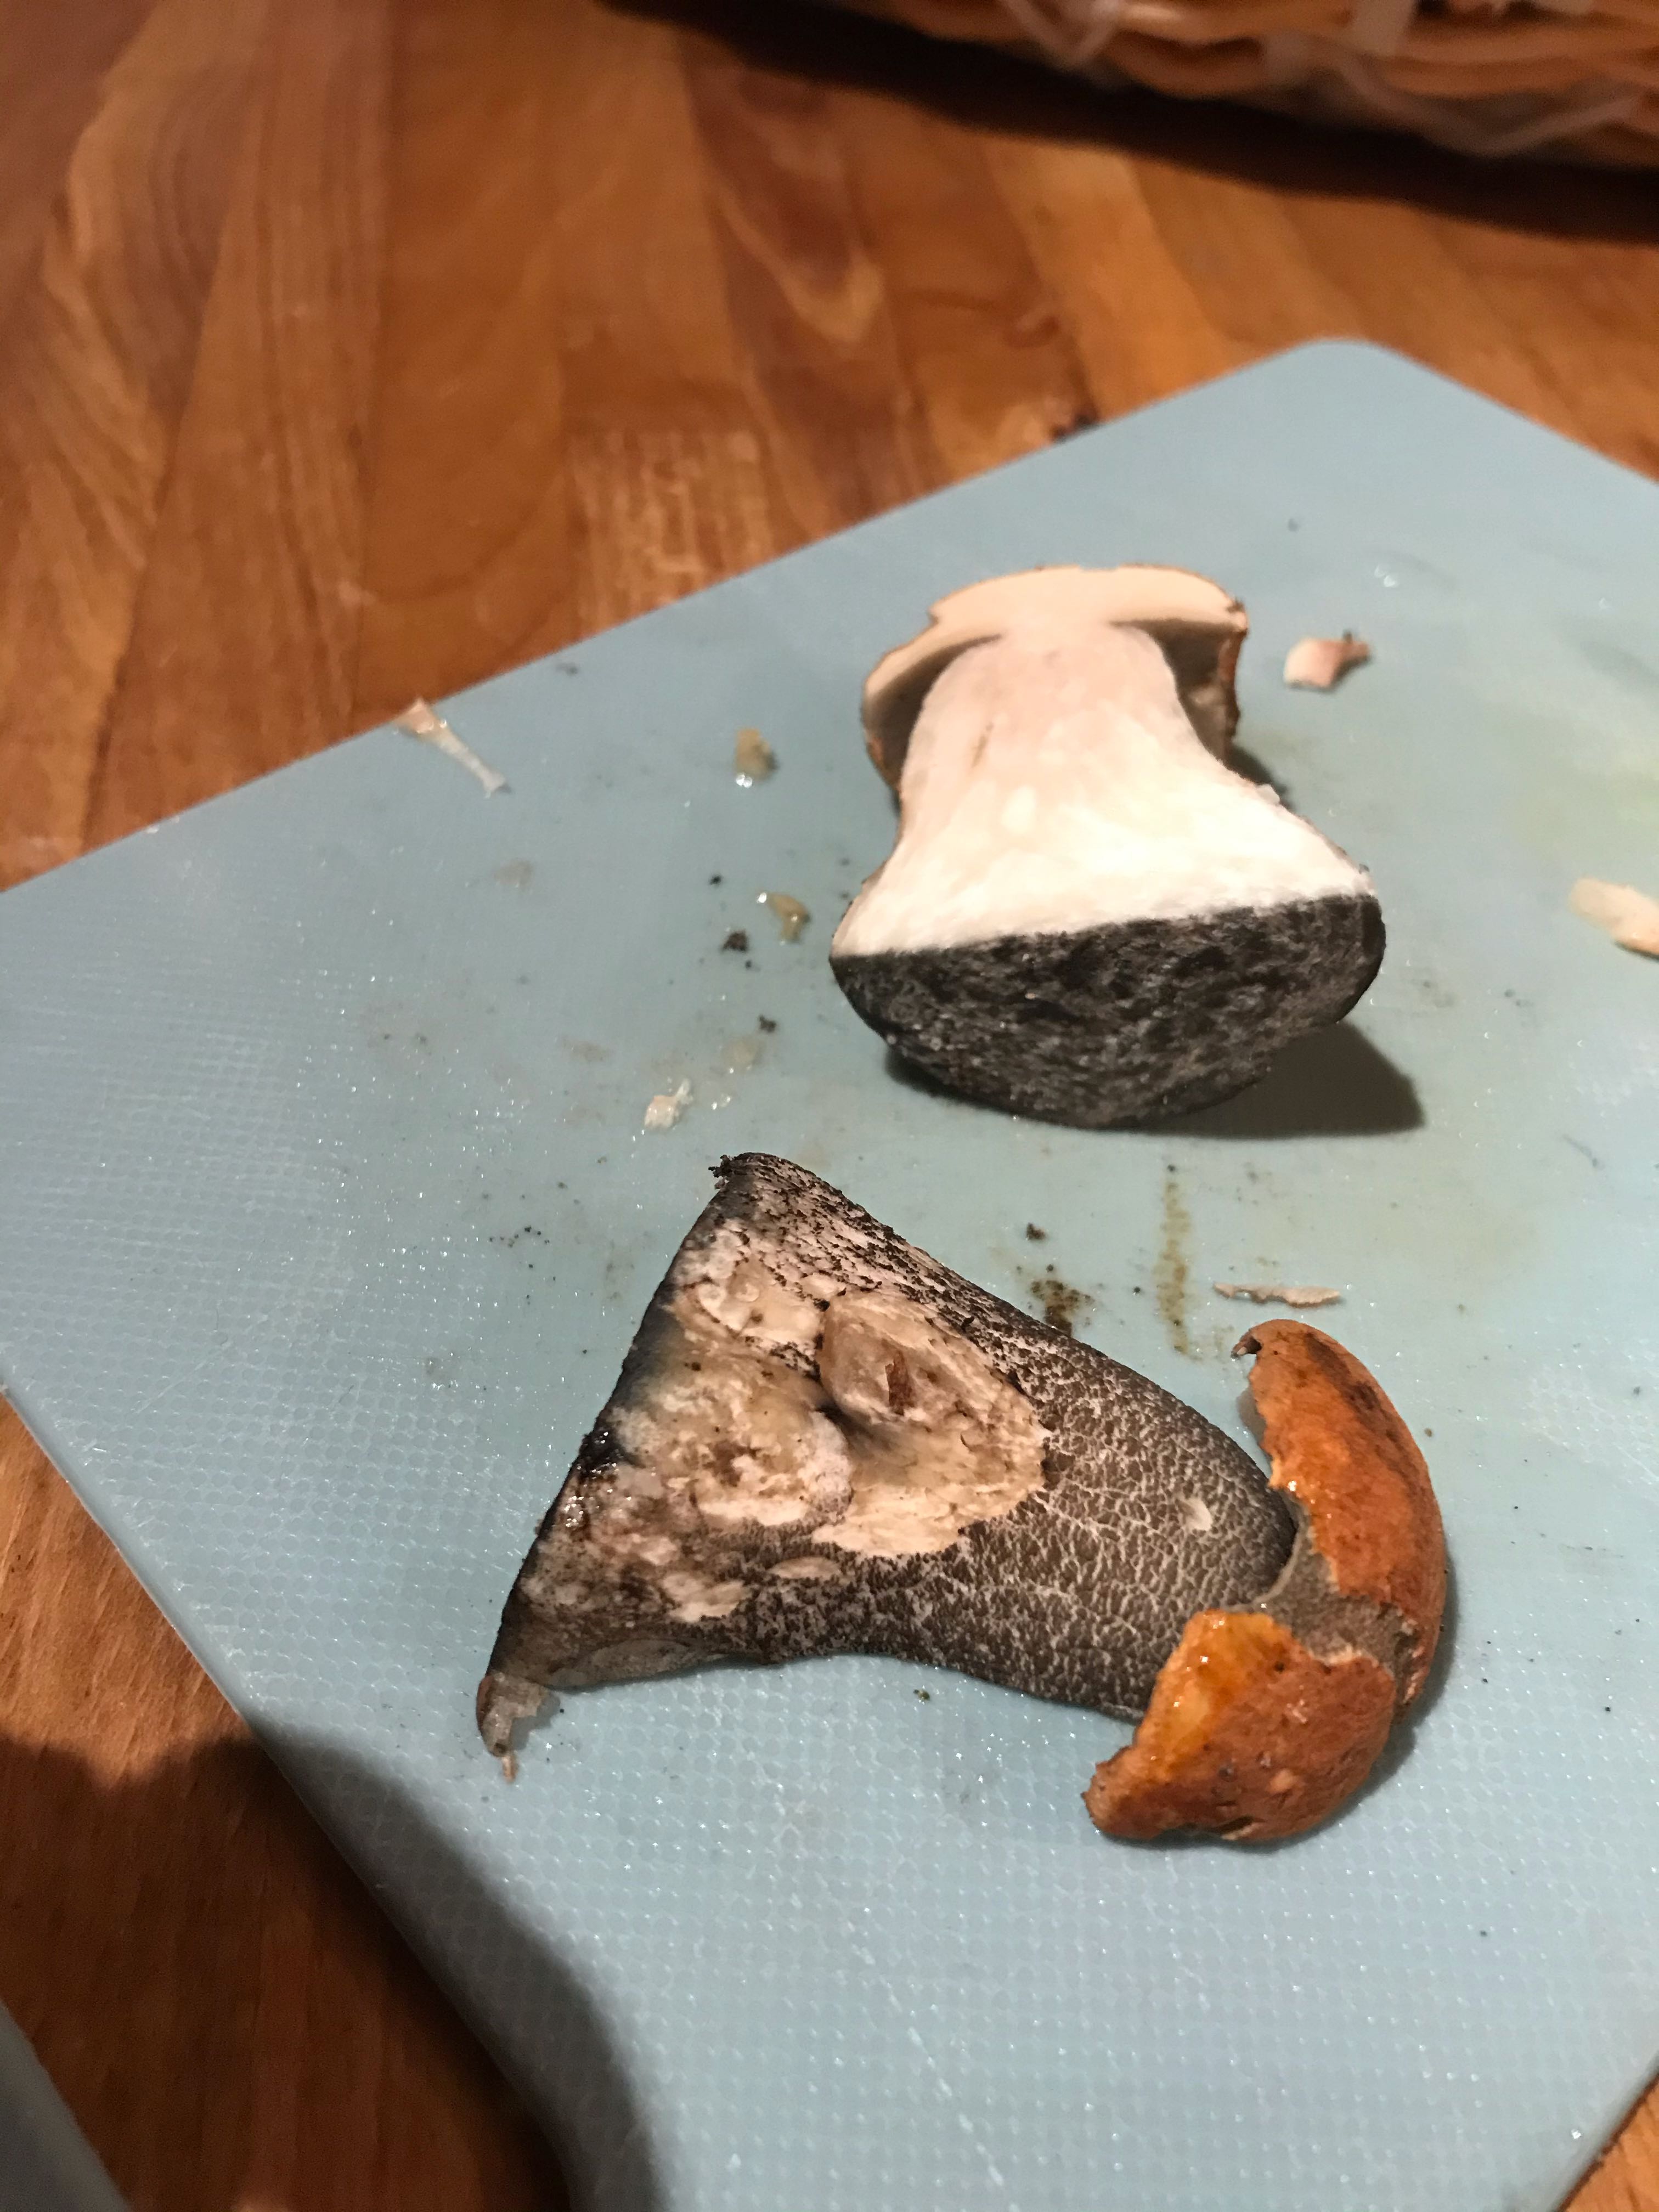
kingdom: Fungi
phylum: Basidiomycota
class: Agaricomycetes
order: Boletales
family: Boletaceae
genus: Leccinum
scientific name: Leccinum versipelle
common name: orange skælrørhat
